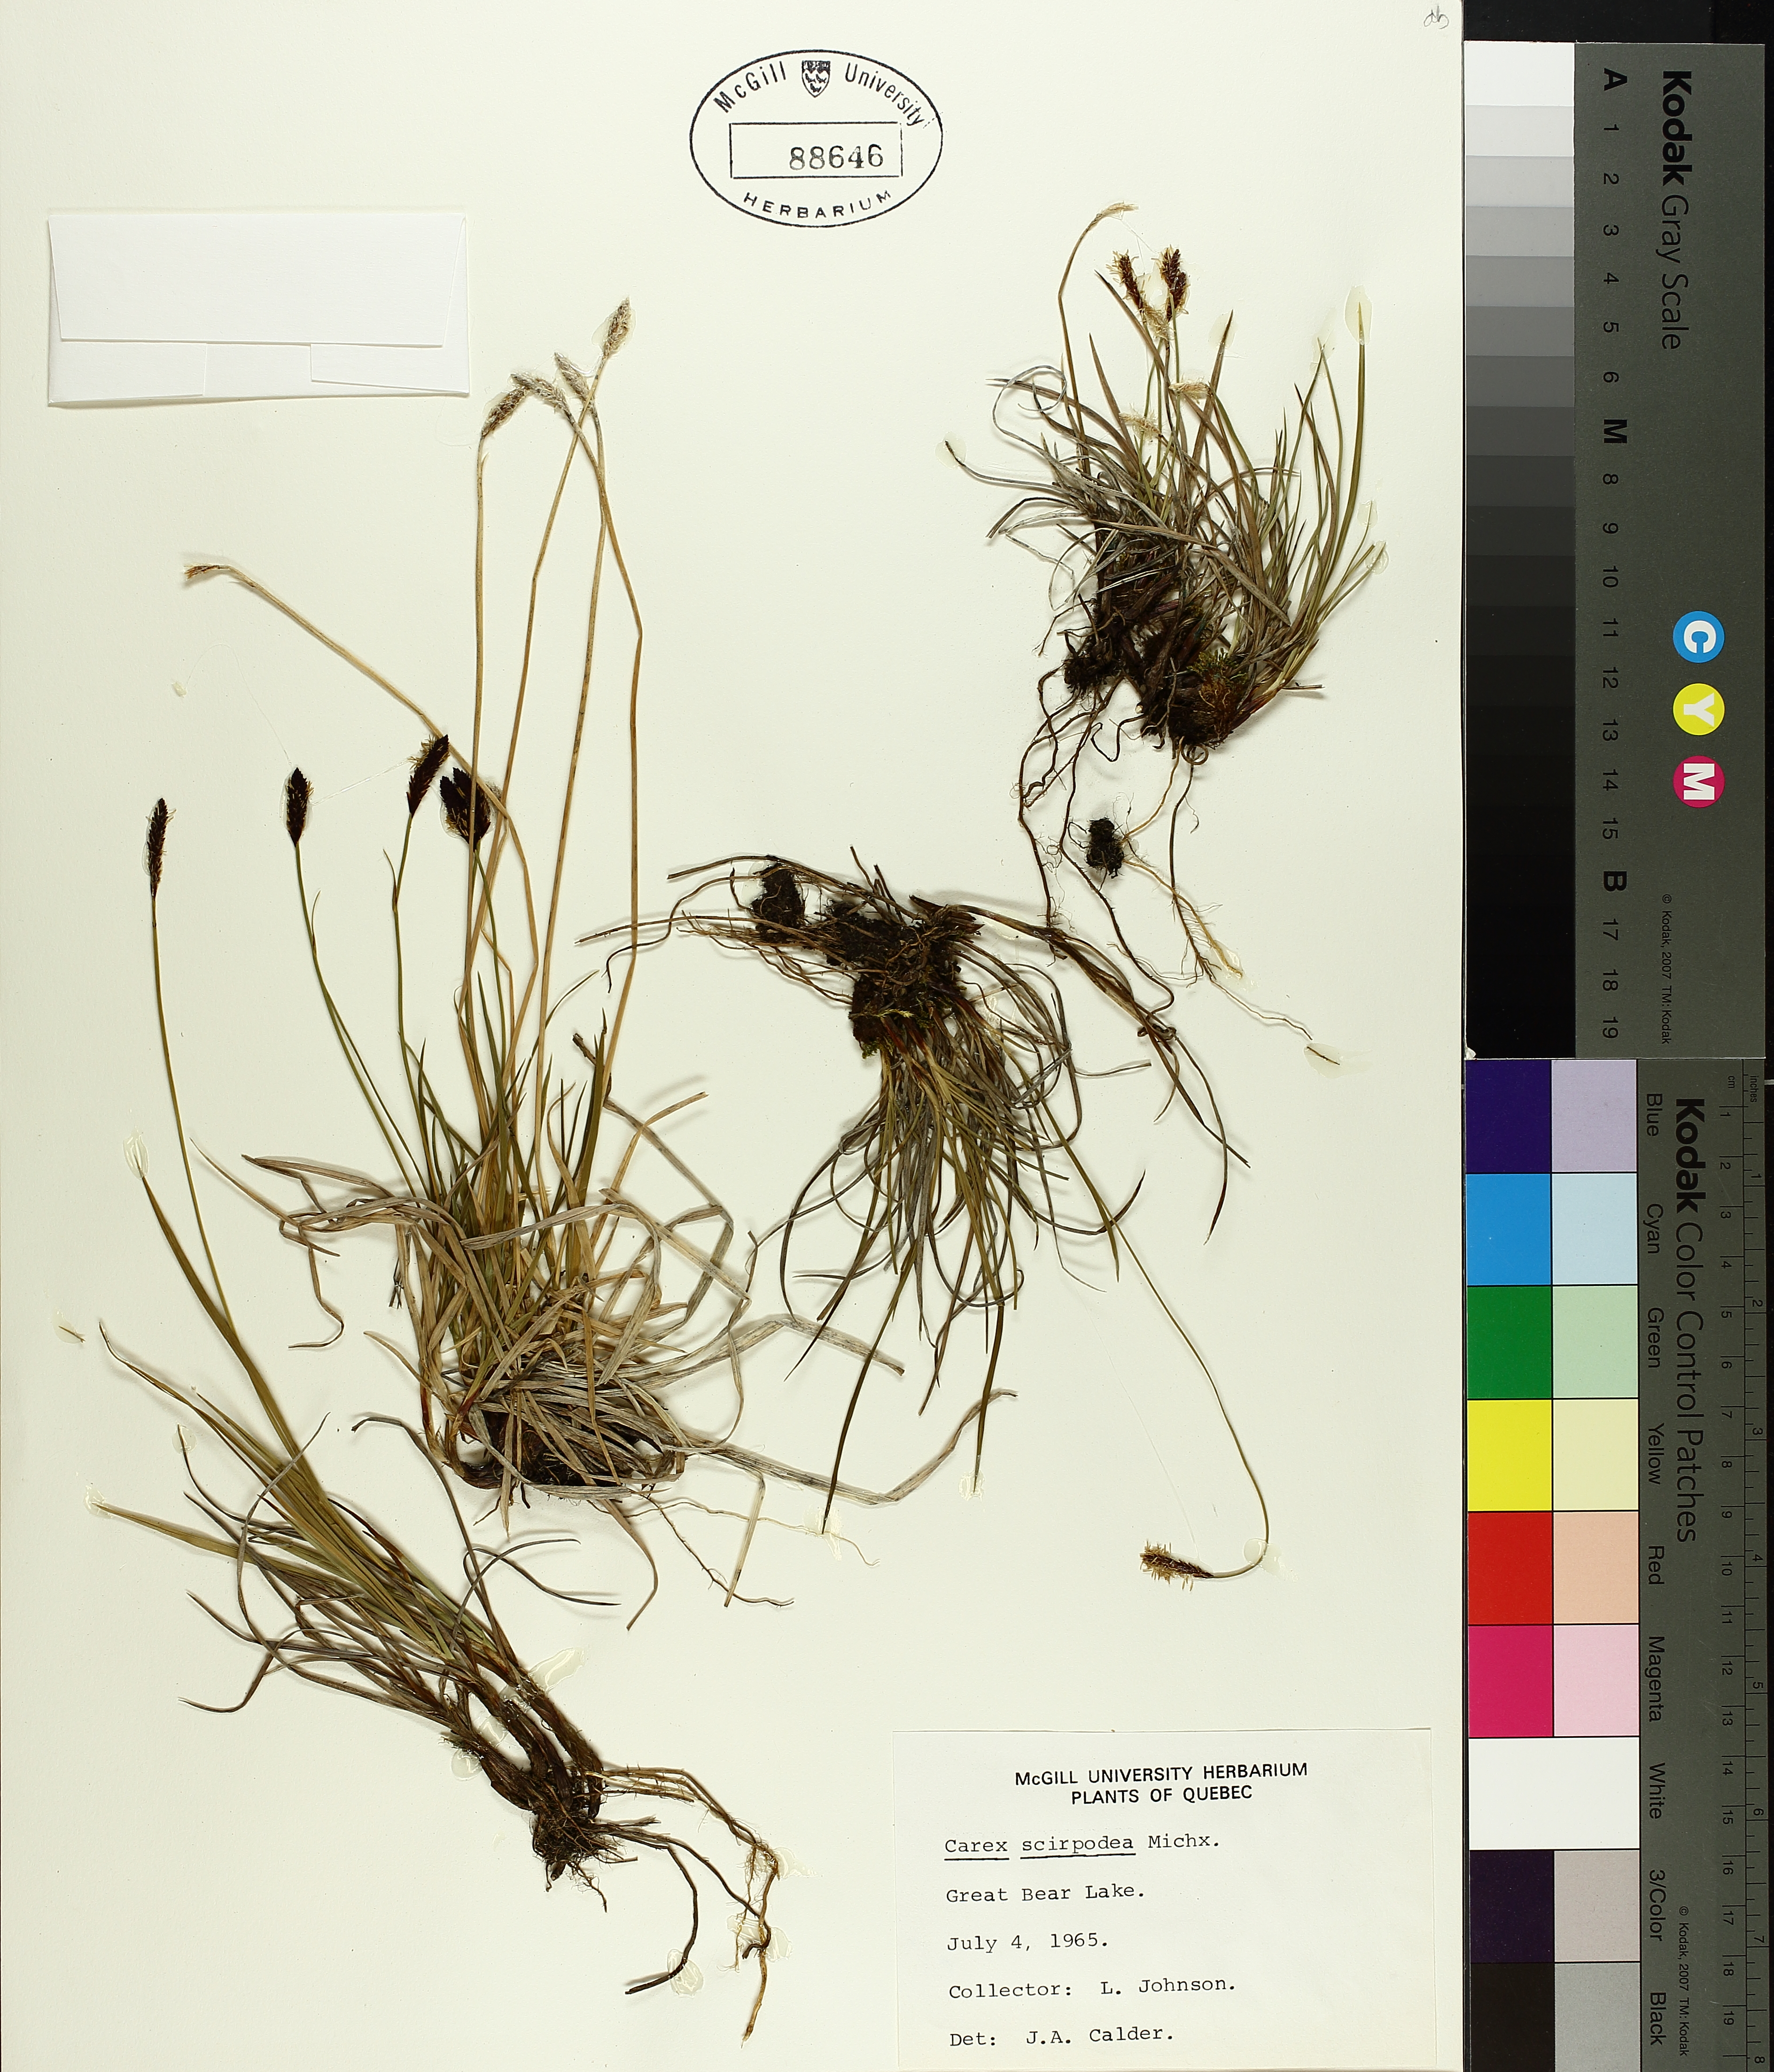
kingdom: Plantae
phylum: Tracheophyta
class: Liliopsida
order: Poales
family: Cyperaceae
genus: Carex
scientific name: Carex scirpoidea
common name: Canada single-spike sedge
